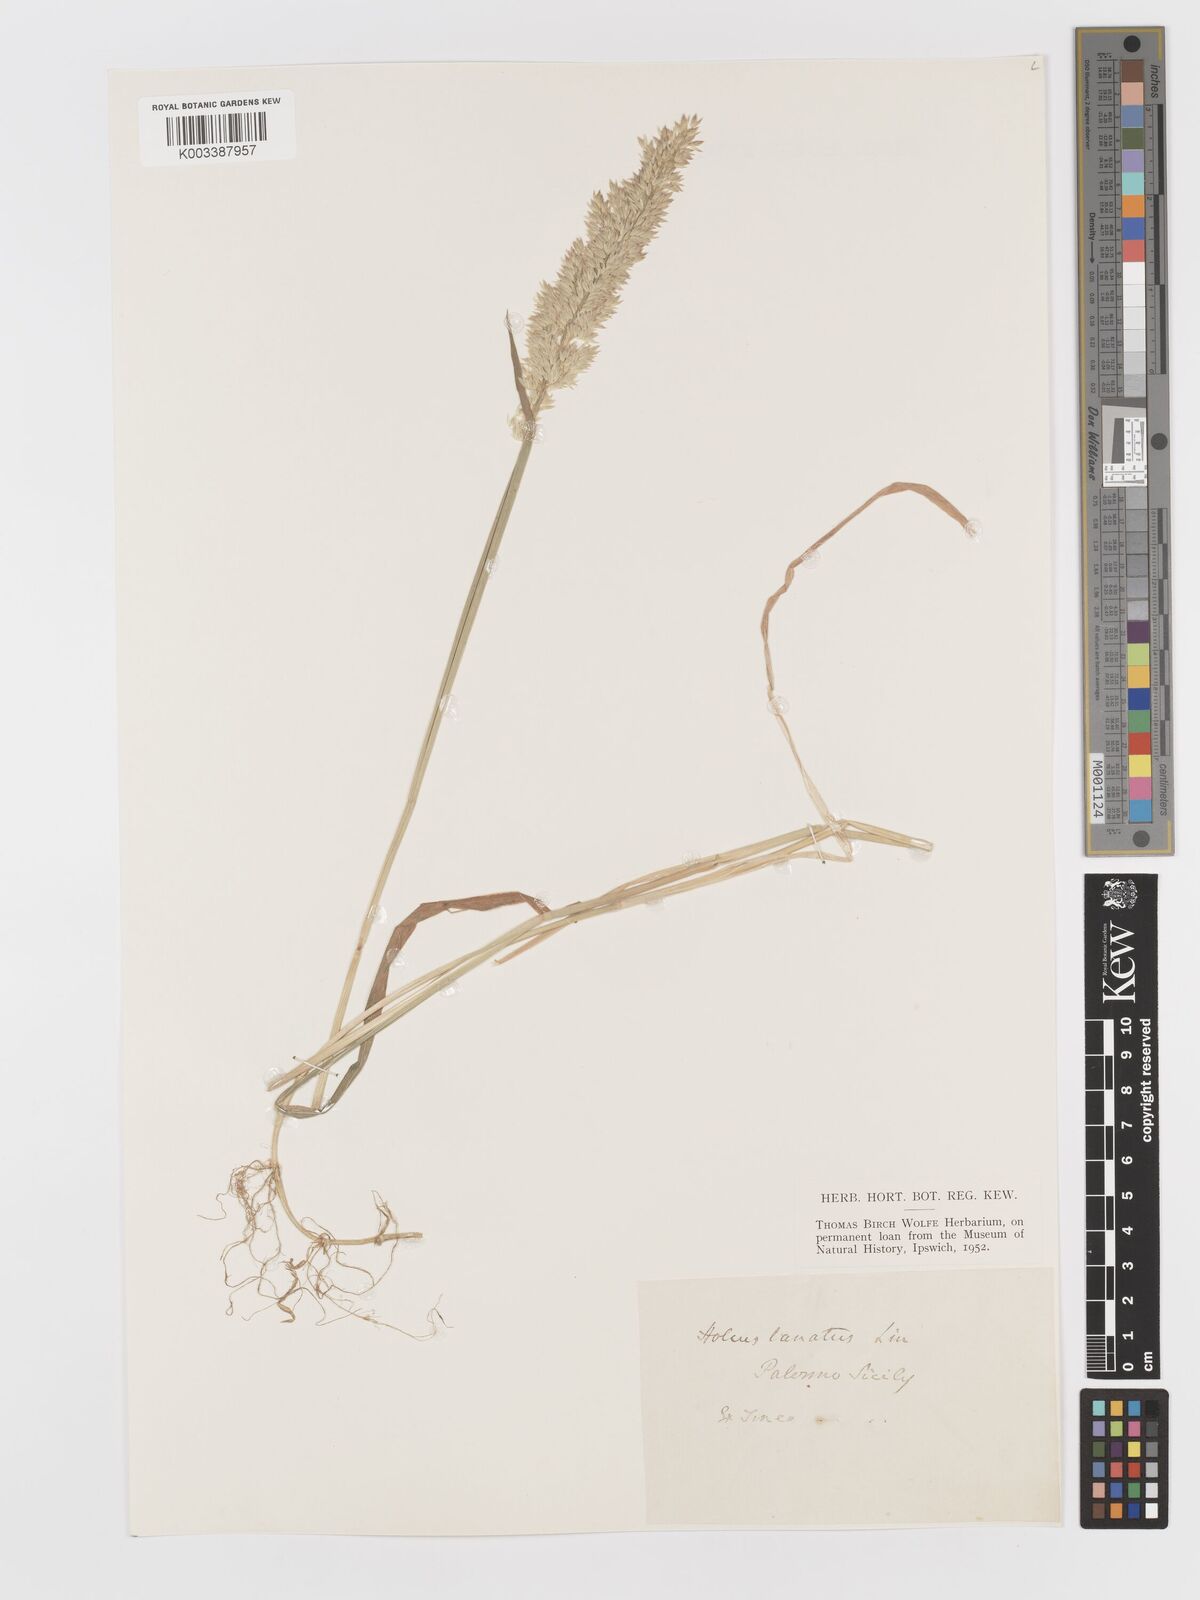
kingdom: Plantae
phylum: Tracheophyta
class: Liliopsida
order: Poales
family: Poaceae
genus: Holcus
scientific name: Holcus lanatus
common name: Yorkshire-fog
